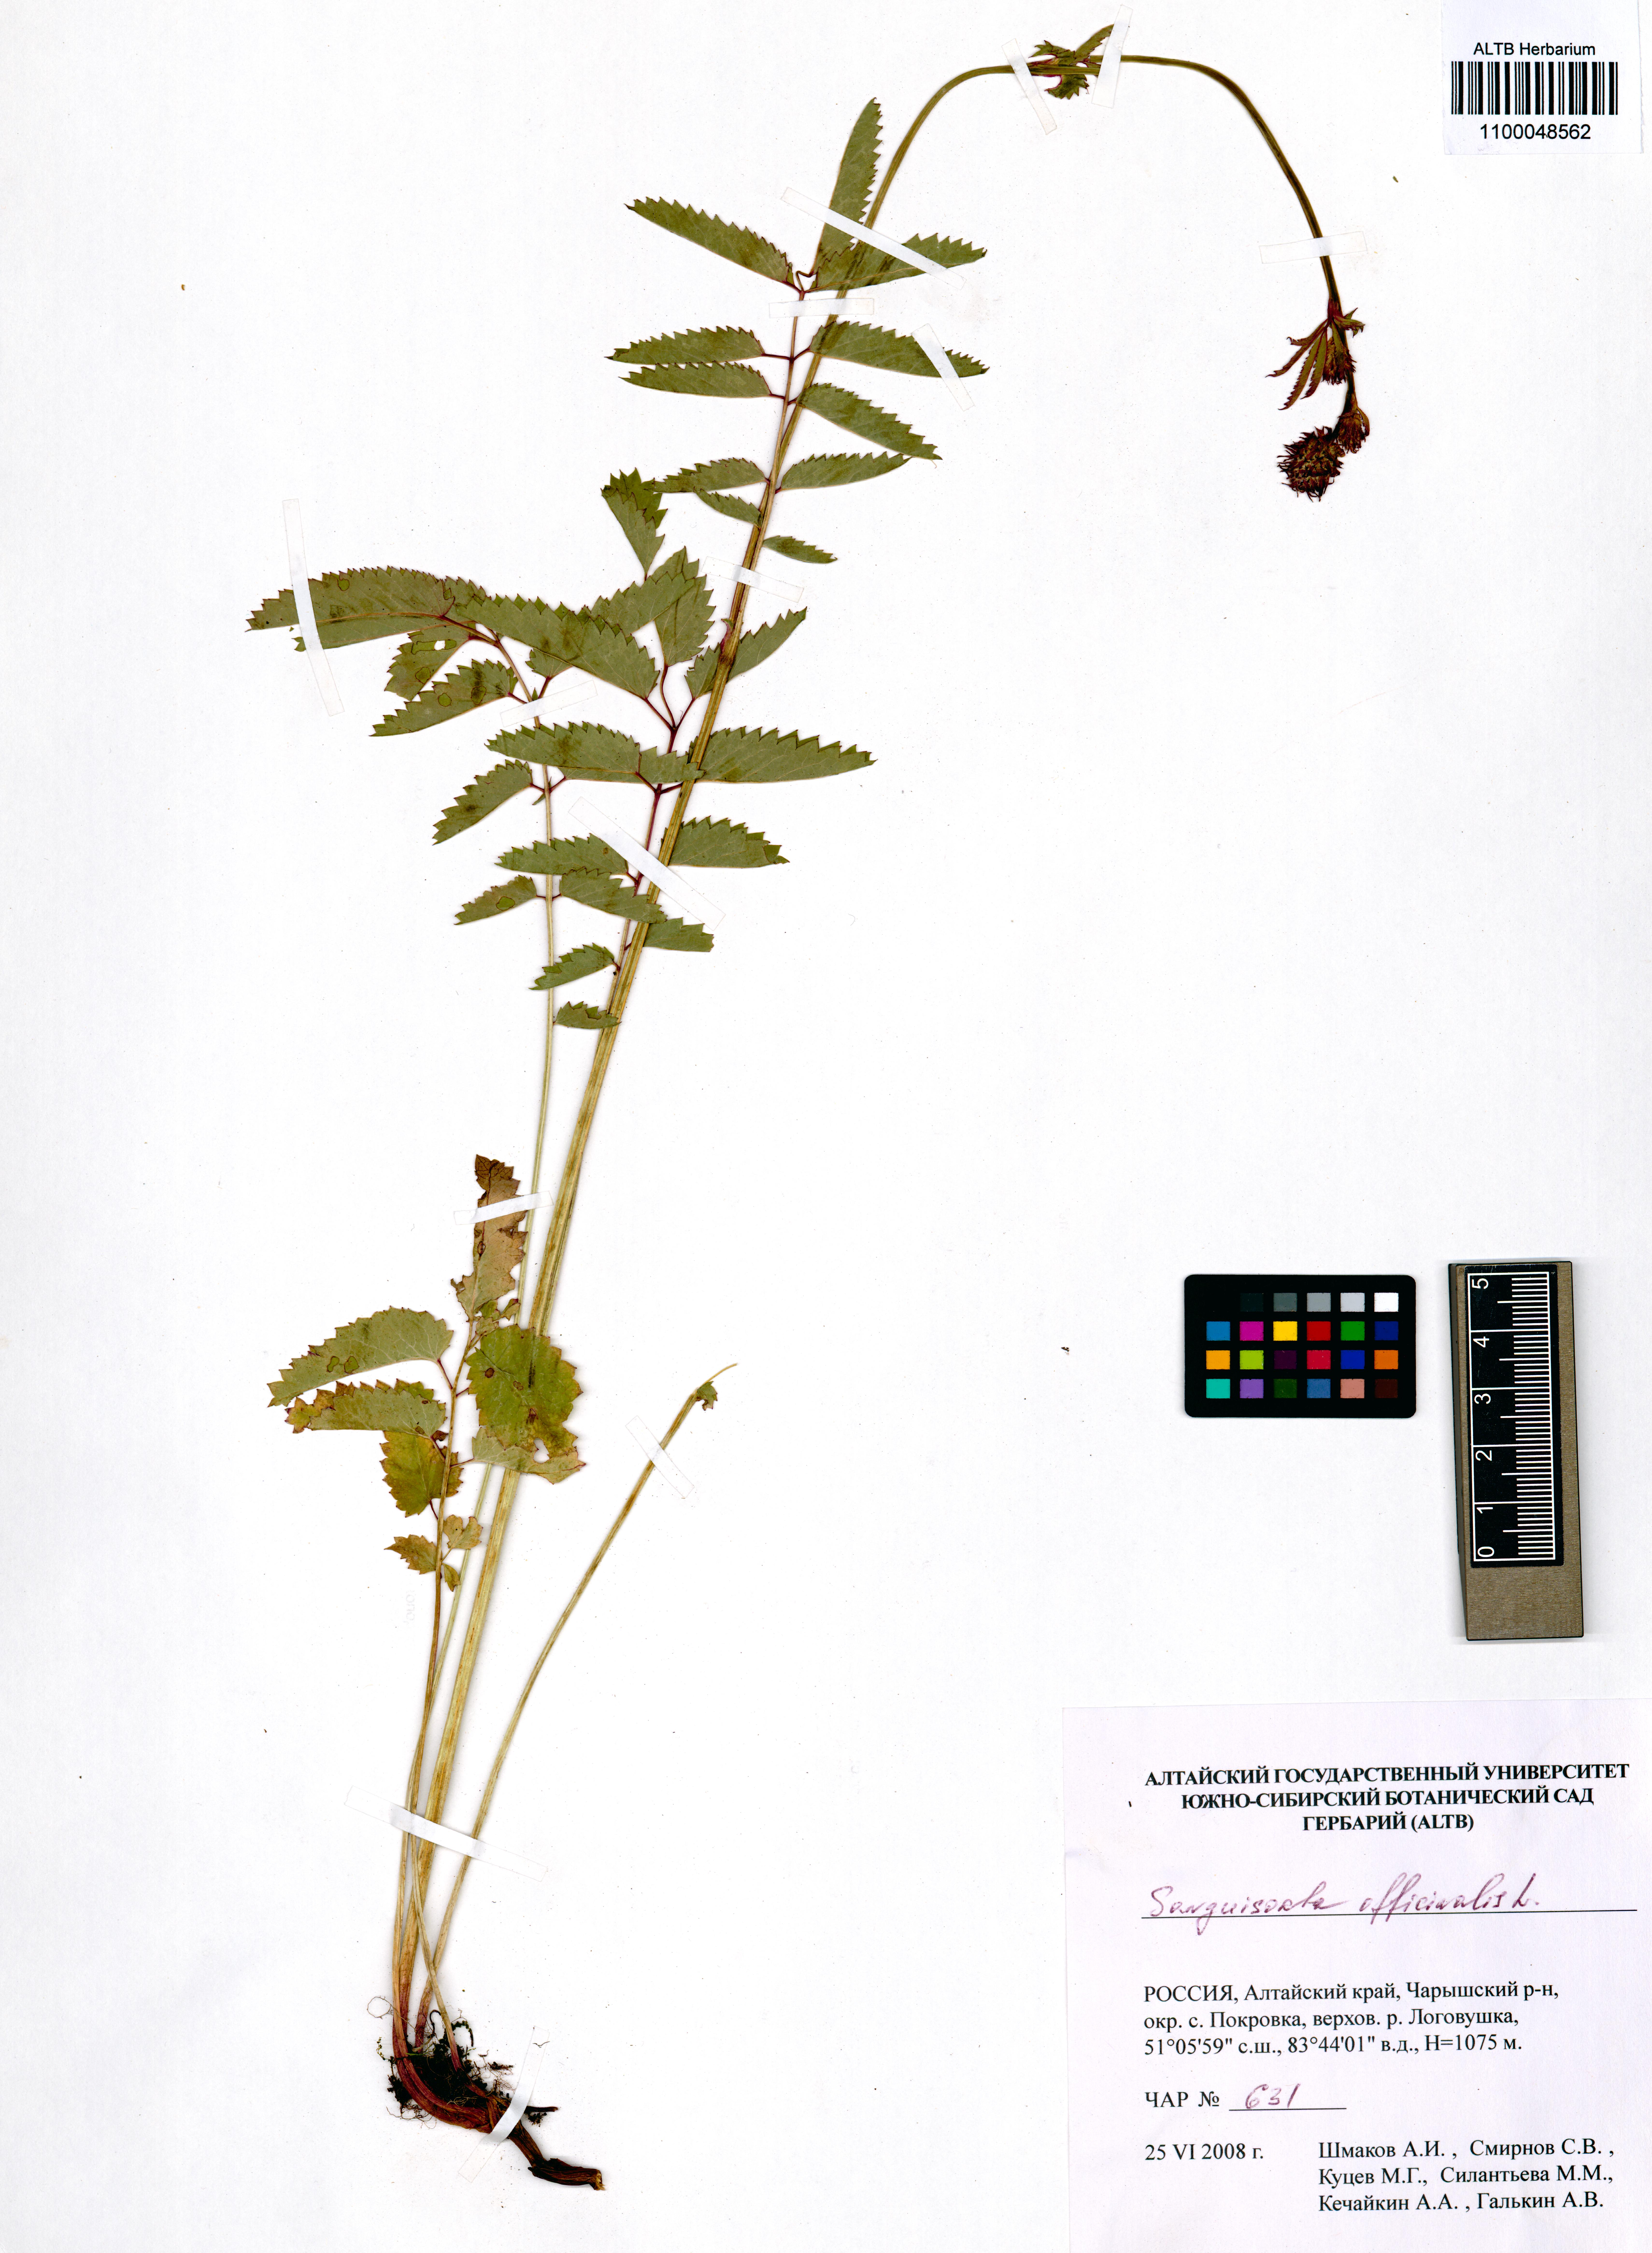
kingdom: Plantae
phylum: Tracheophyta
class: Magnoliopsida
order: Rosales
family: Rosaceae
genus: Sanguisorba
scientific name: Sanguisorba officinalis
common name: Great burnet
